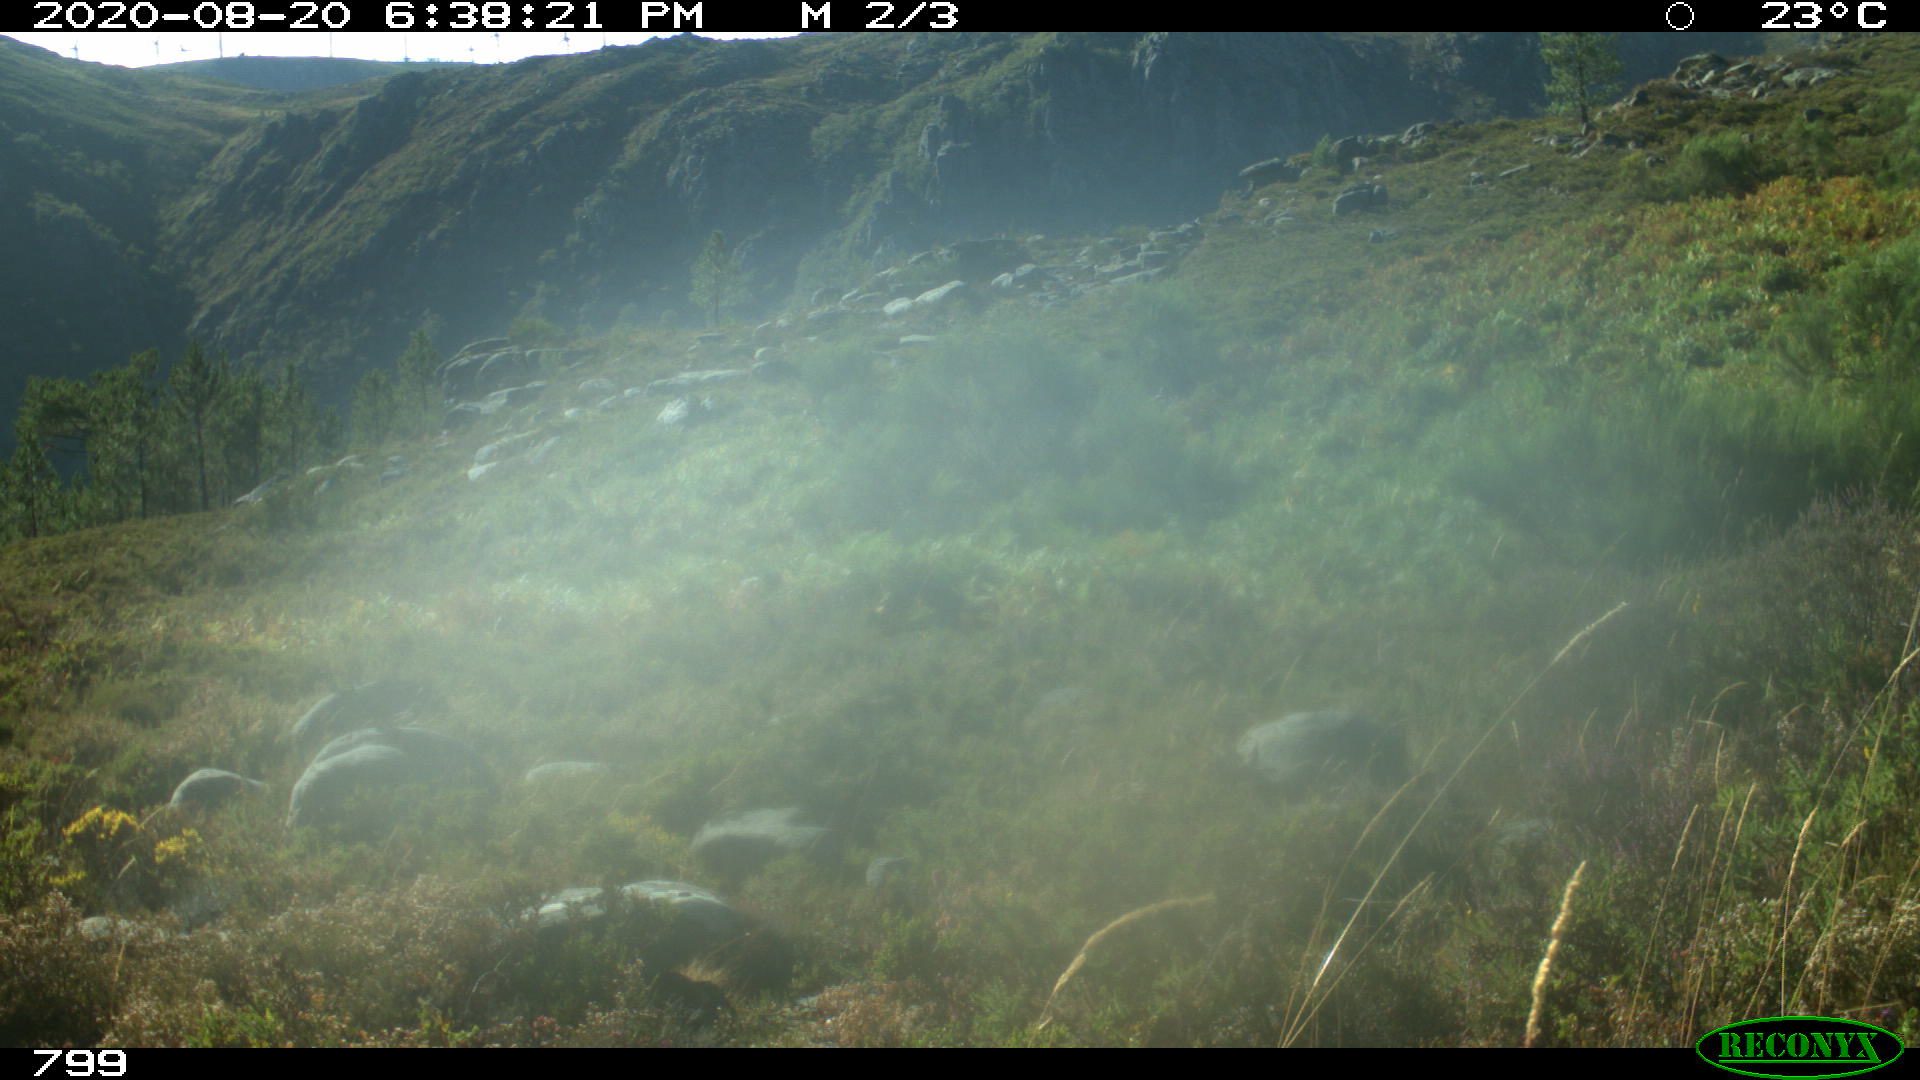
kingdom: Animalia
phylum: Chordata
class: Mammalia
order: Perissodactyla
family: Equidae
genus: Equus
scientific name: Equus caballus
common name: Horse
